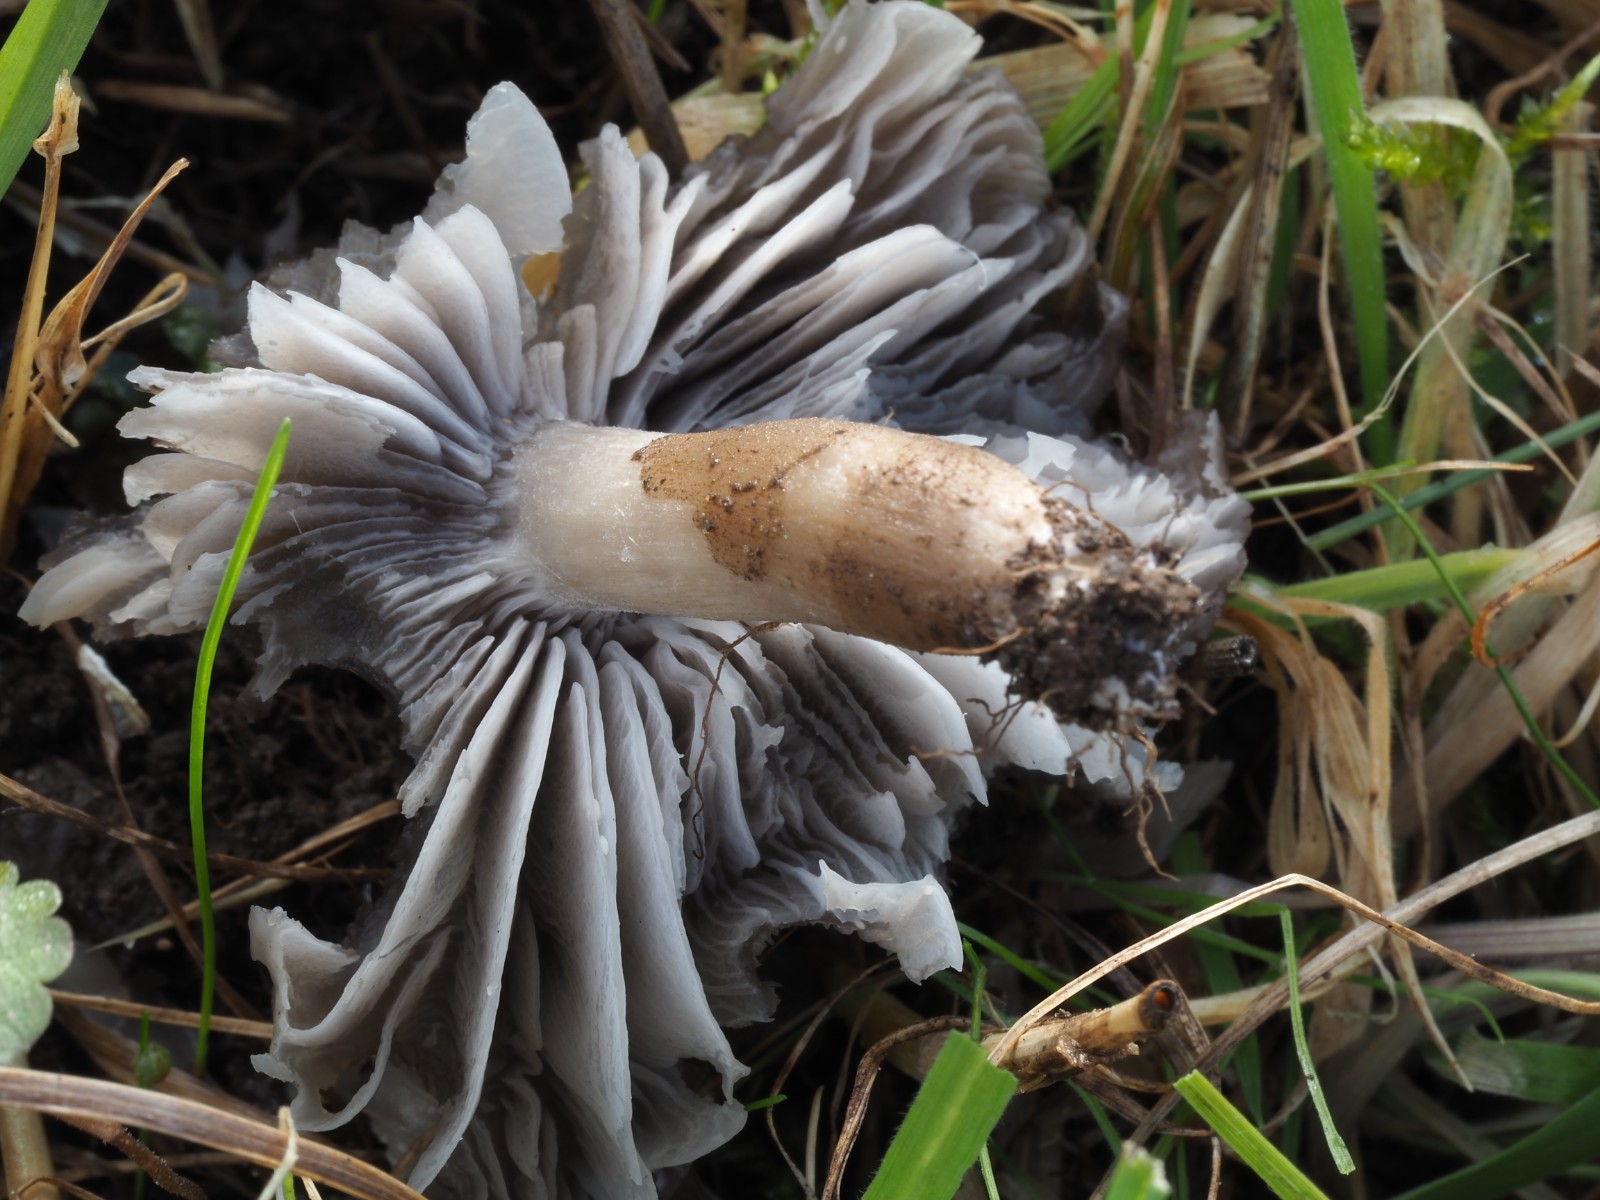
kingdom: Fungi
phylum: Basidiomycota
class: Agaricomycetes
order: Agaricales
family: Hygrophoraceae
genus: Neohygrocybe
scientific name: Neohygrocybe nitrata
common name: stinkende vokshat
